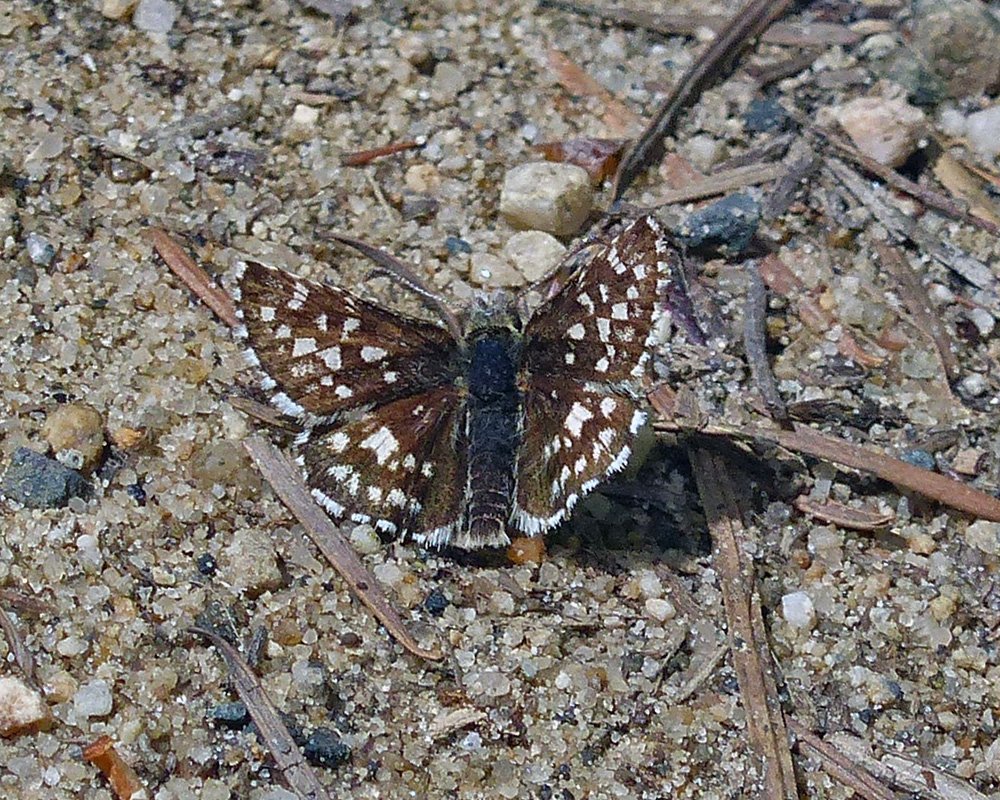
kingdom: Animalia
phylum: Arthropoda
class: Insecta
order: Lepidoptera
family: Hesperiidae
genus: Pyrgus
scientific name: Pyrgus ruralis
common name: Two-banded Checkered-Skipper
